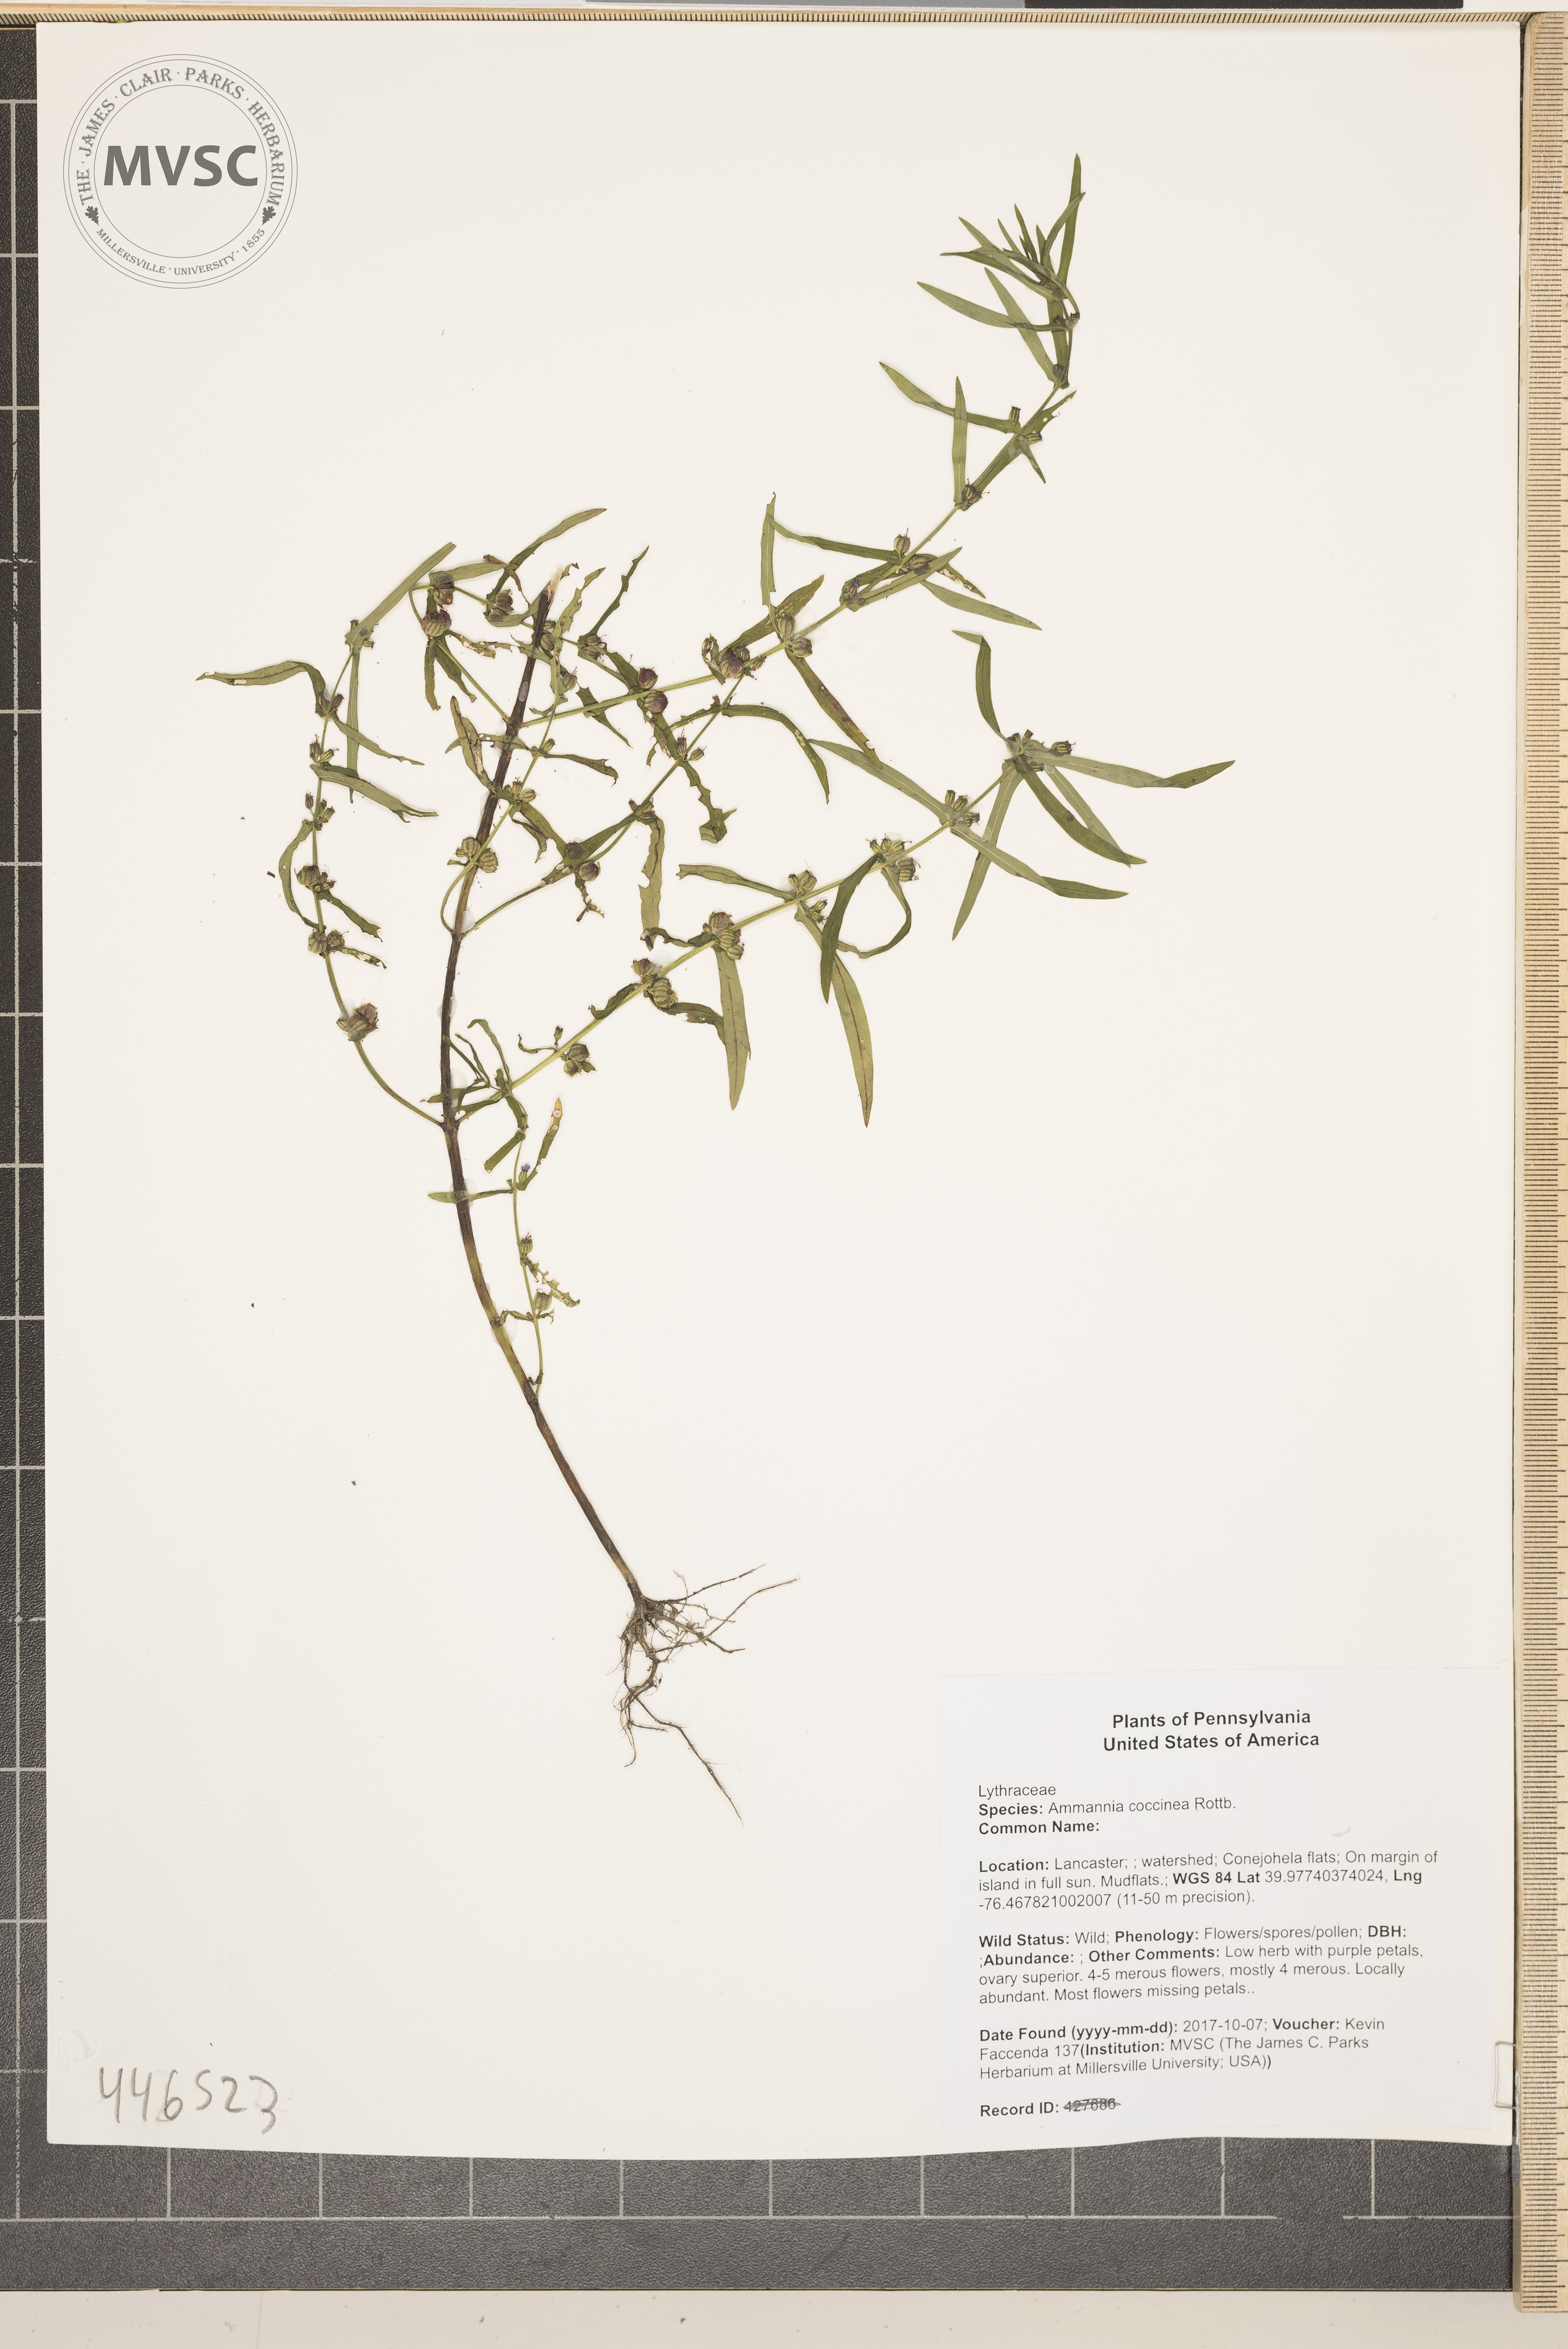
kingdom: Plantae
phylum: Tracheophyta
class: Magnoliopsida
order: Myrtales
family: Lythraceae
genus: Ammannia
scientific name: Ammannia coccinea
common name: Valley redstem
